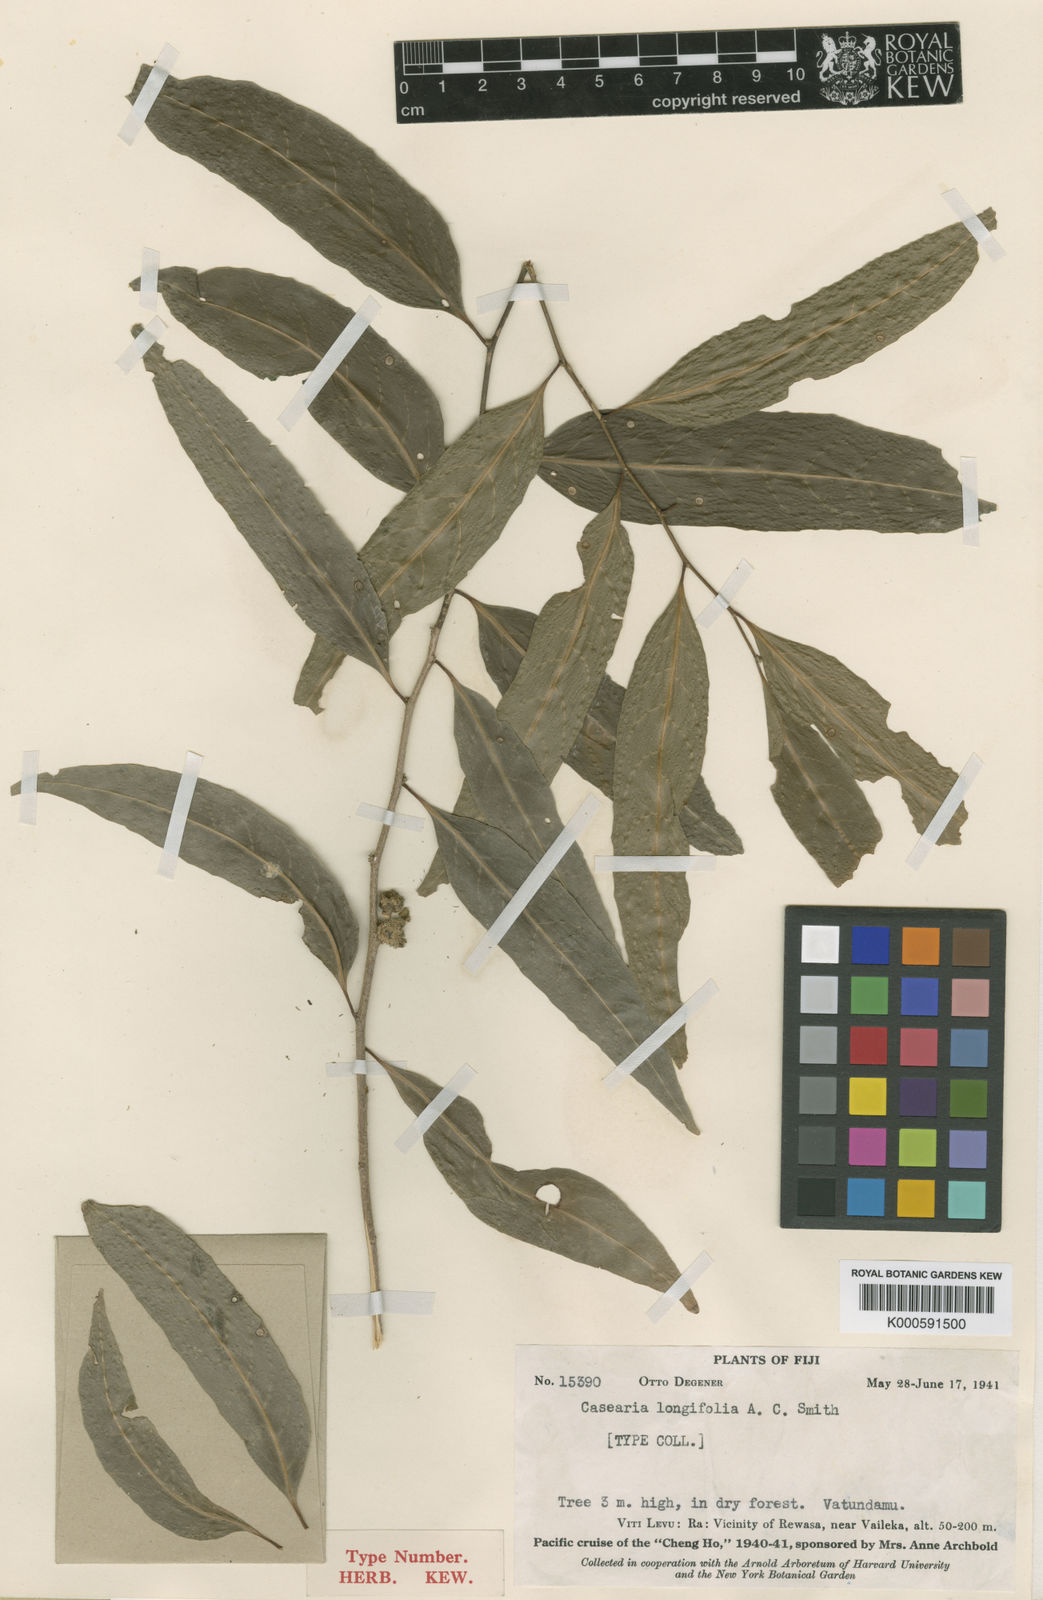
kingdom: Plantae
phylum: Tracheophyta
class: Magnoliopsida
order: Malpighiales
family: Salicaceae
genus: Casearia
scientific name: Casearia longifolia
